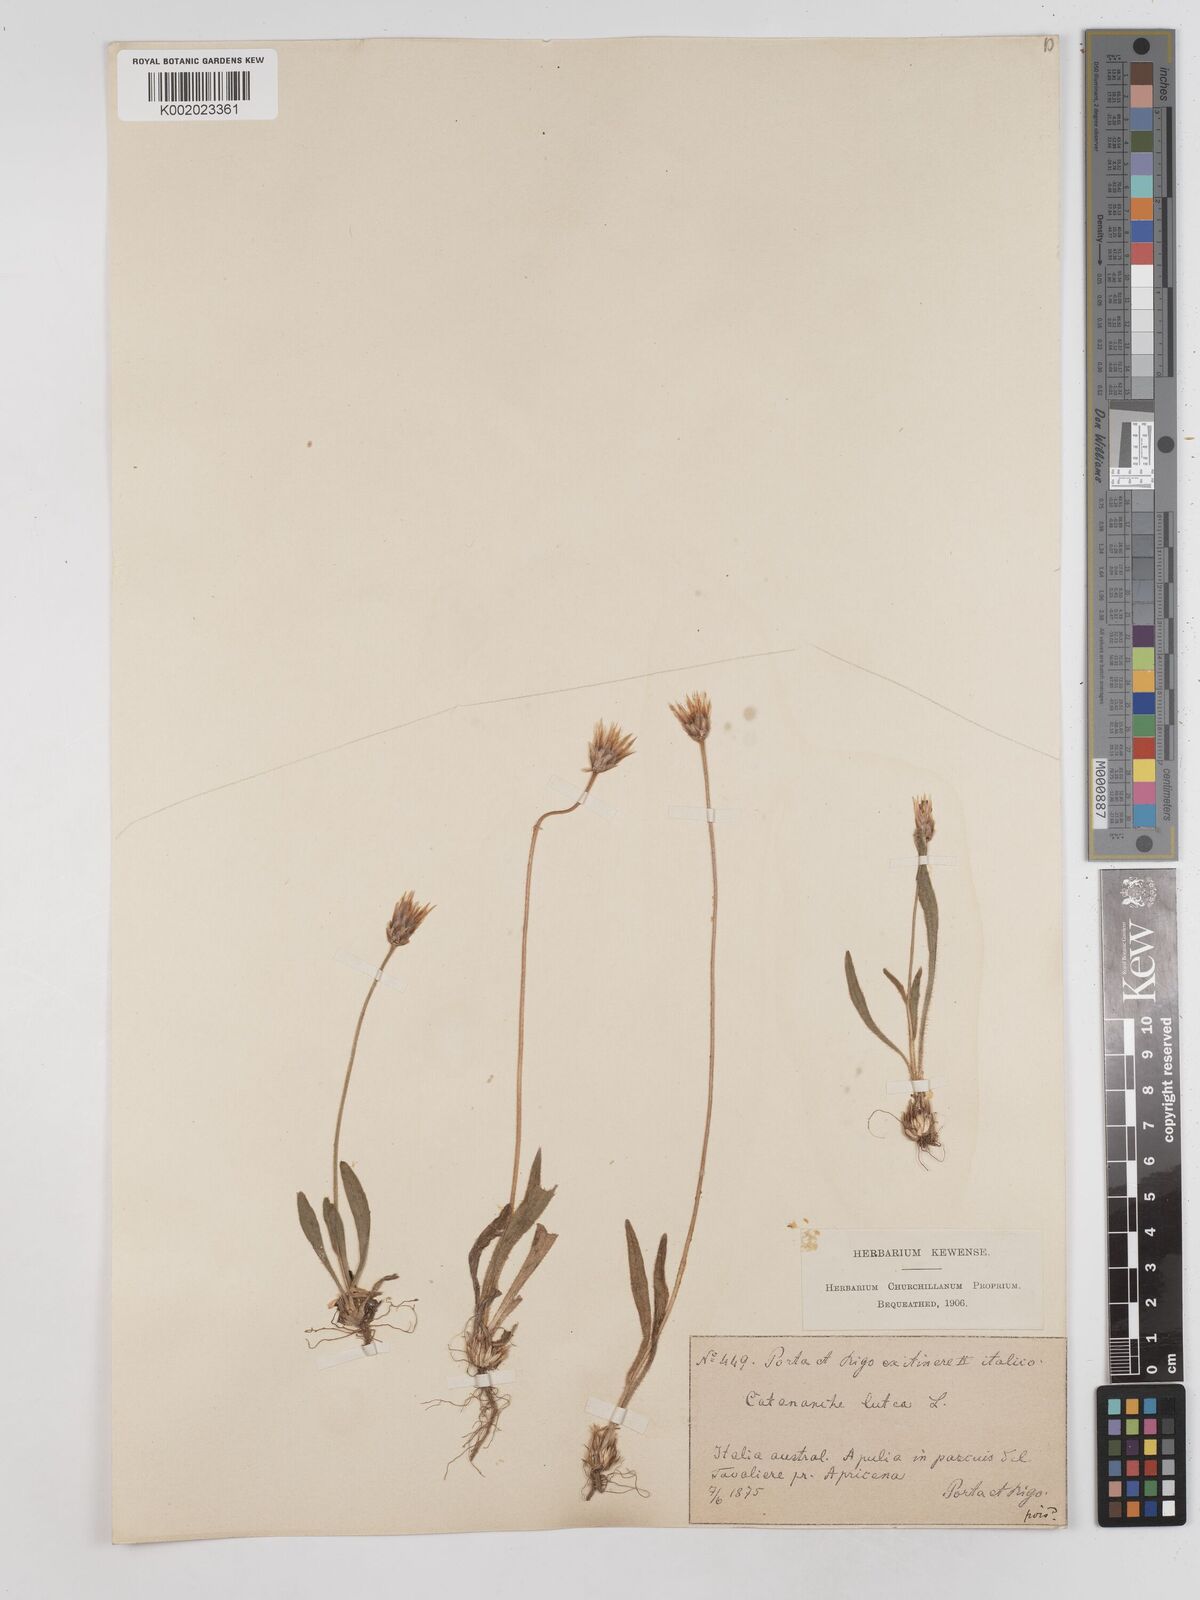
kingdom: Plantae
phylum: Tracheophyta
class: Magnoliopsida
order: Asterales
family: Asteraceae
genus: Catananche
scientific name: Catananche lutea
